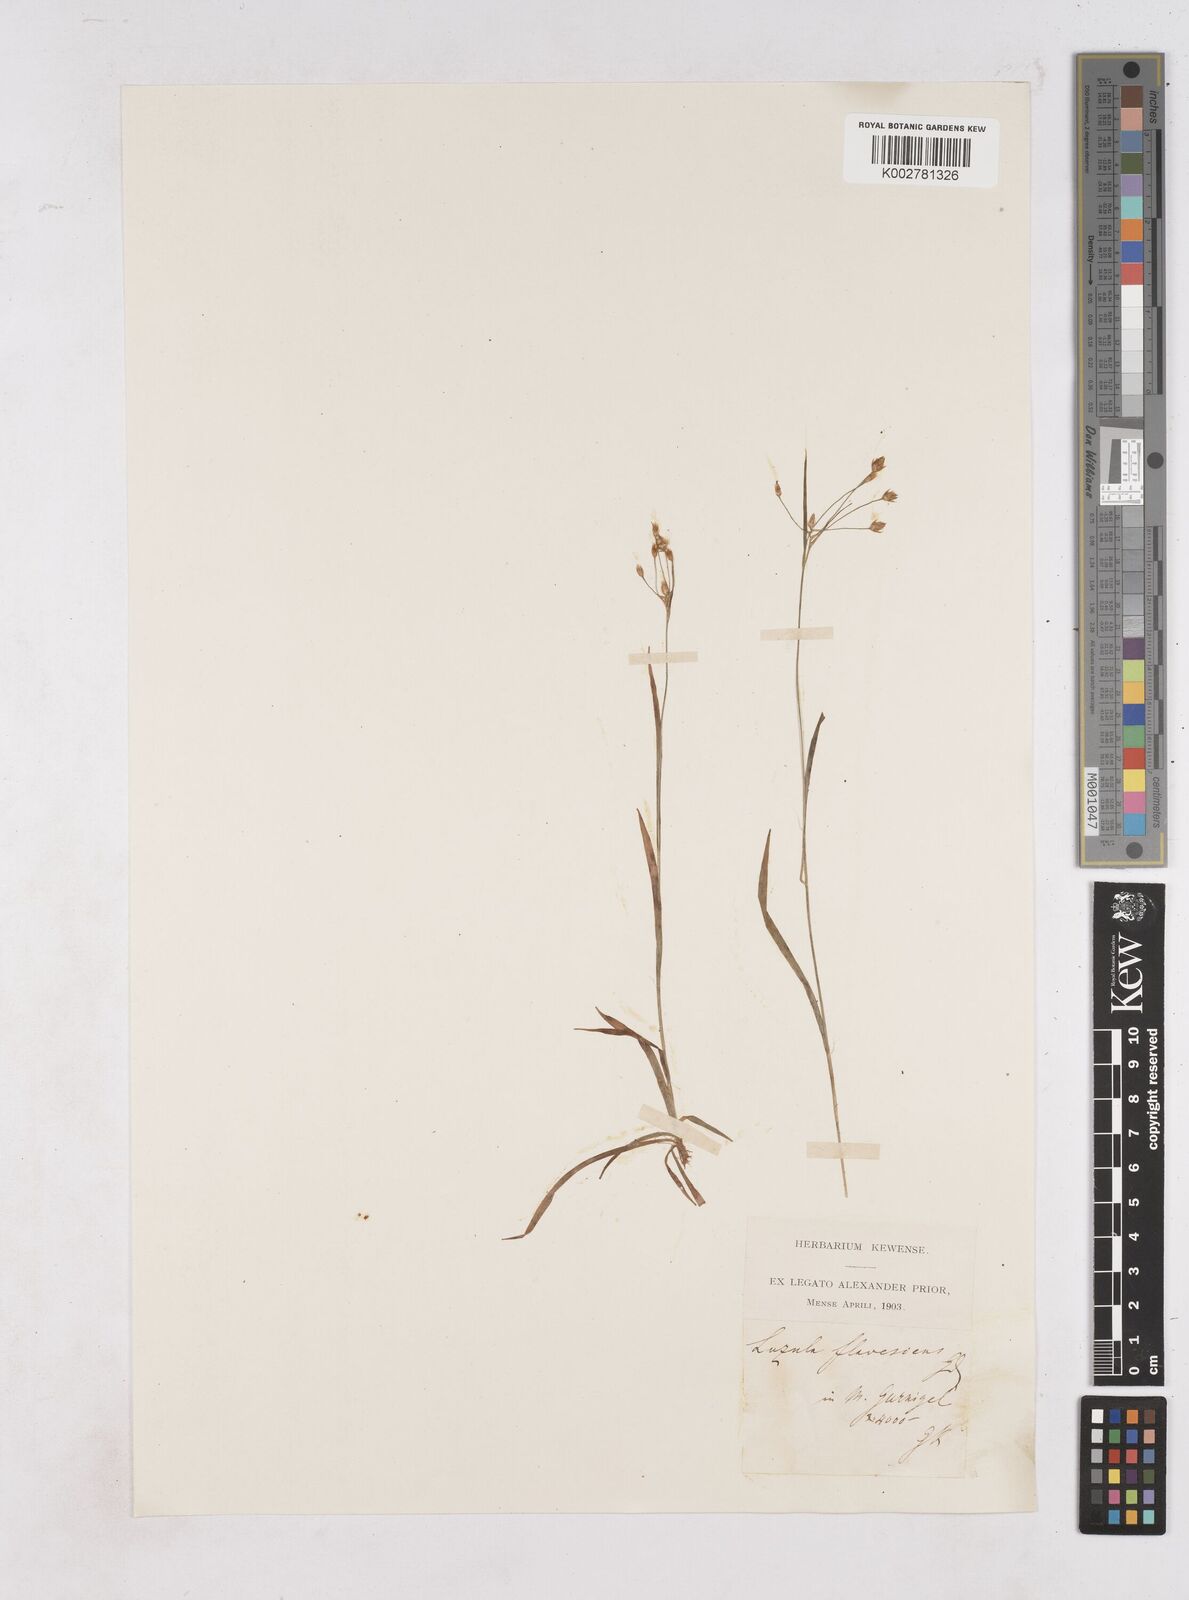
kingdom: Plantae
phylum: Tracheophyta
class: Liliopsida
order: Poales
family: Juncaceae
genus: Luzula
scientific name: Luzula luzulina
